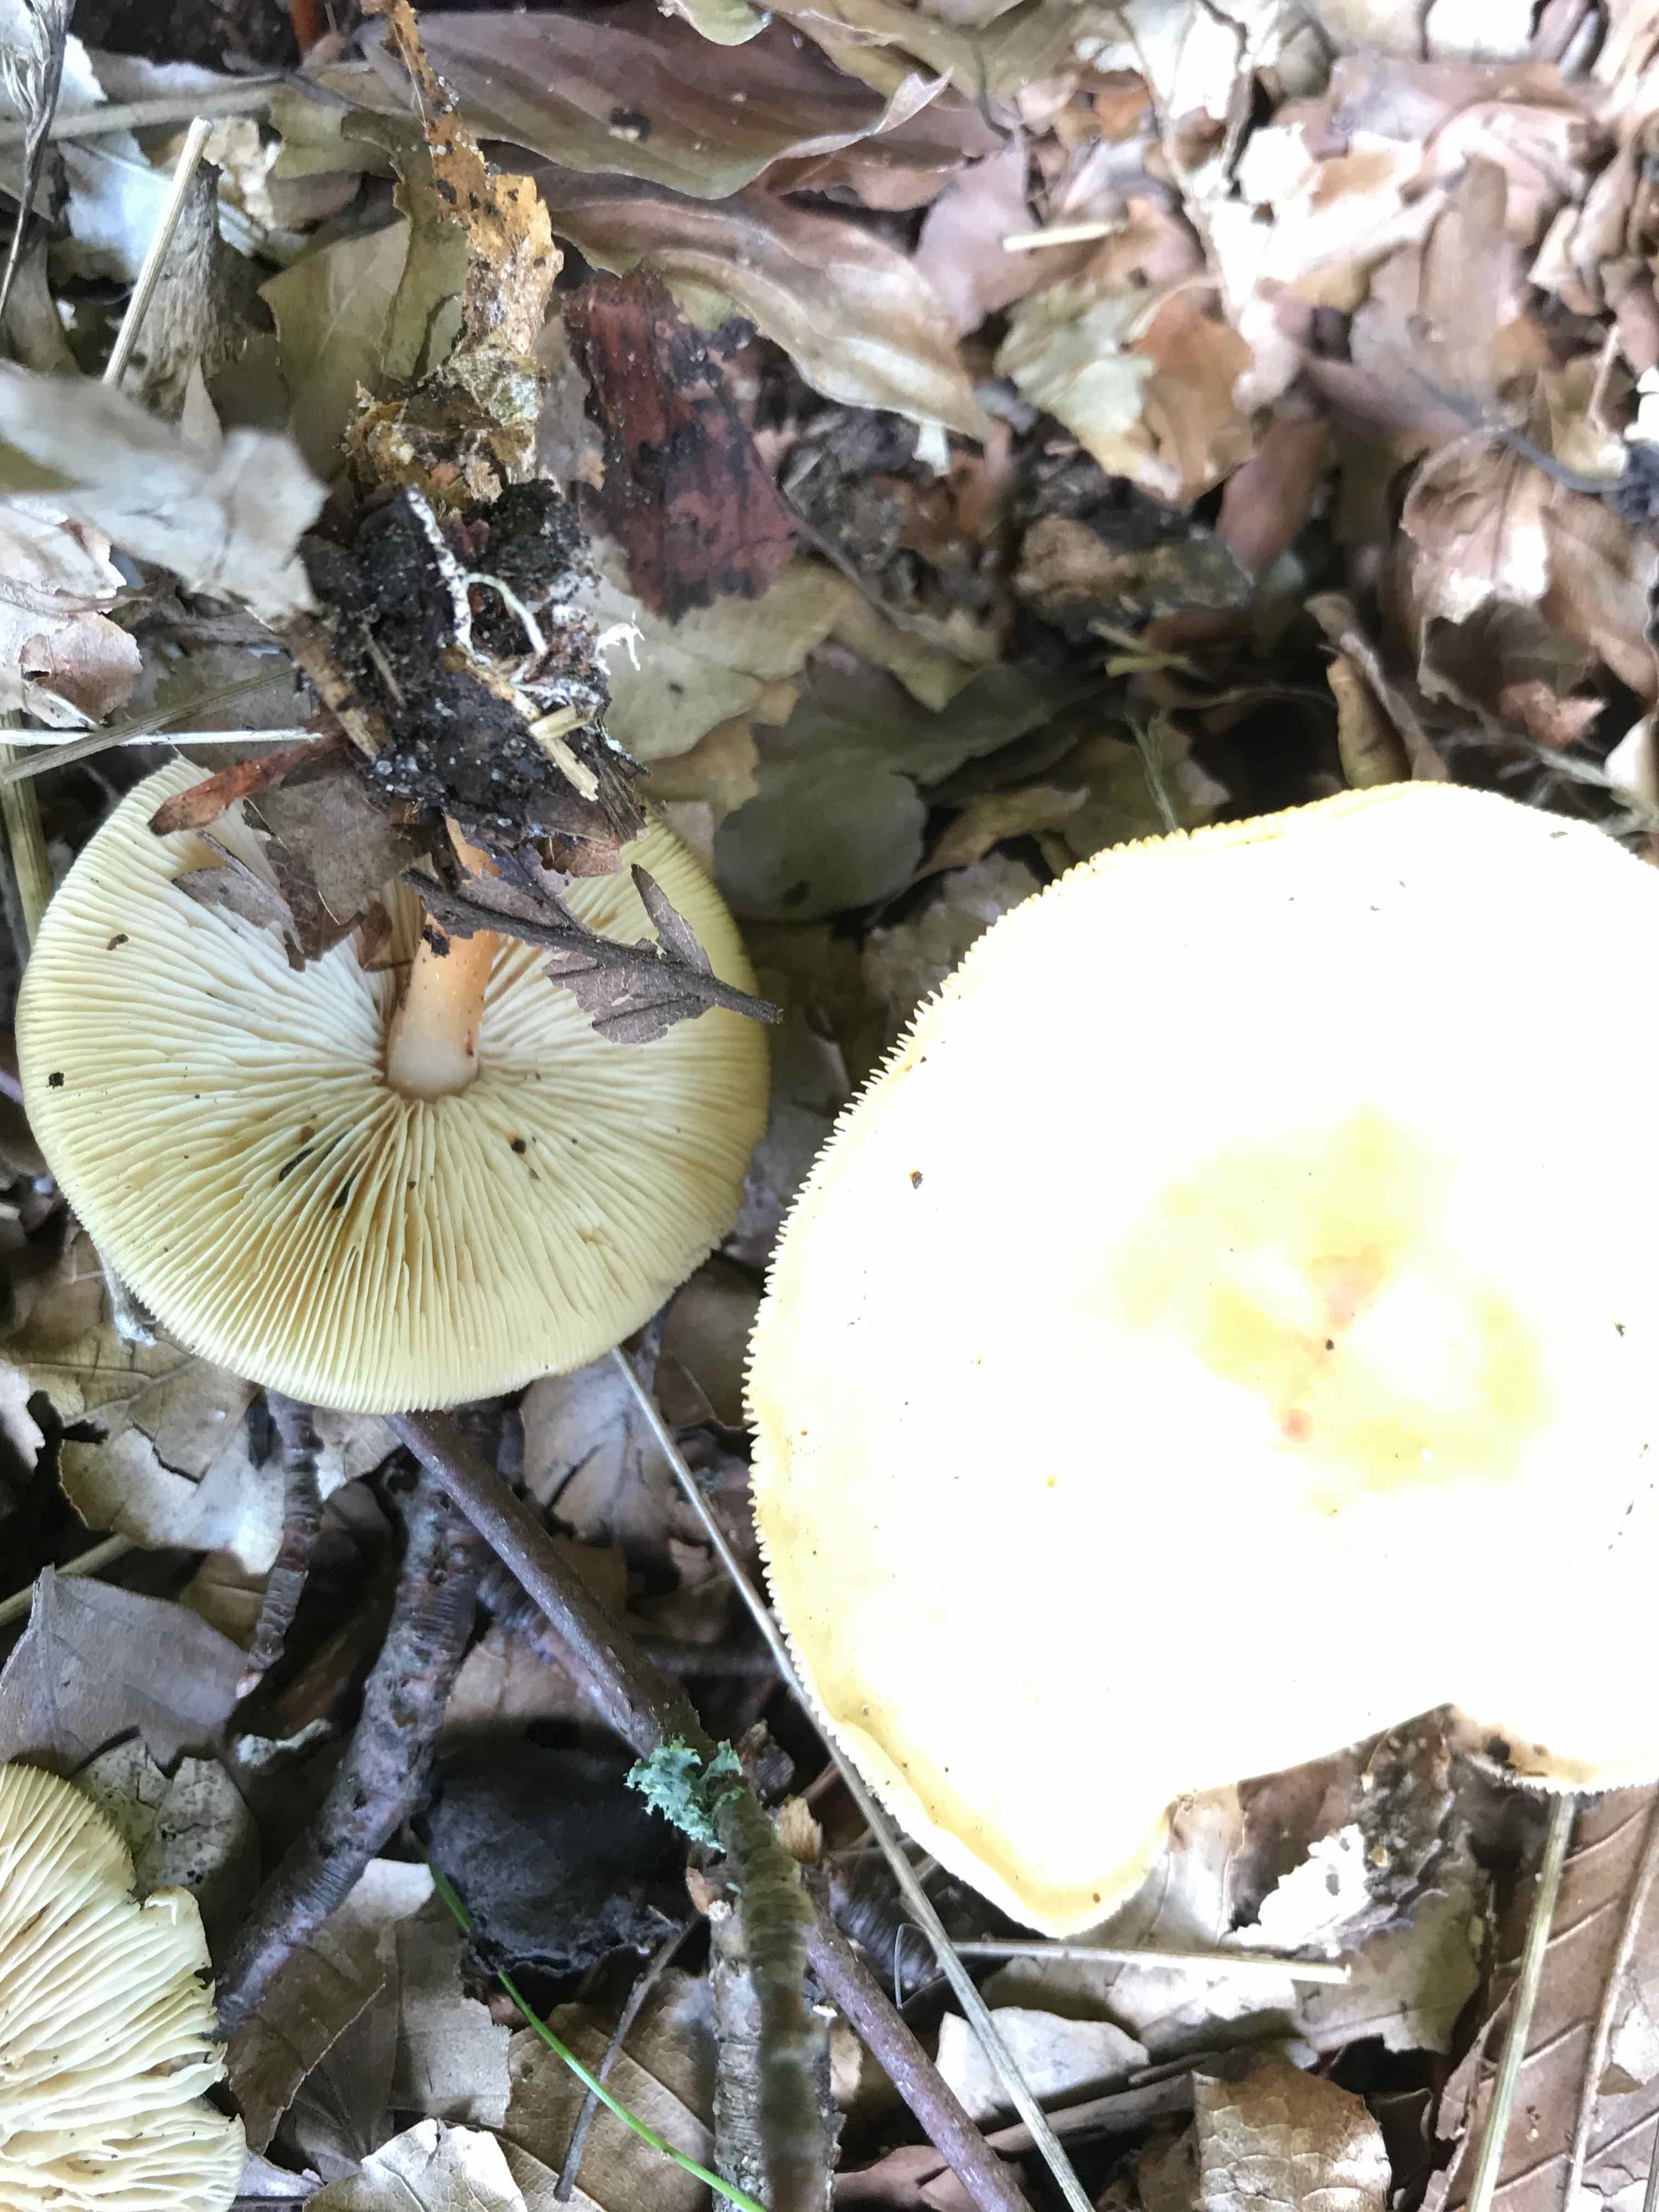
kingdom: Fungi
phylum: Basidiomycota
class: Agaricomycetes
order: Agaricales
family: Omphalotaceae
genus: Gymnopus
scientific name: Gymnopus dryophilus
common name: løv-fladhat
